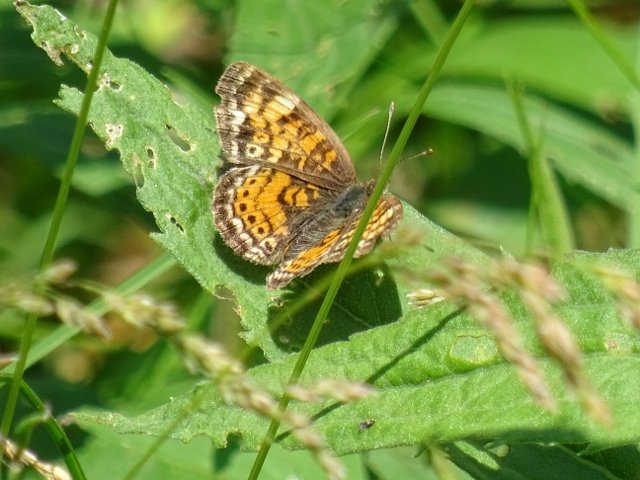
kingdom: Animalia
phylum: Arthropoda
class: Insecta
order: Lepidoptera
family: Nymphalidae
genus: Phyciodes
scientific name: Phyciodes tharos
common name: Northern Crescent
